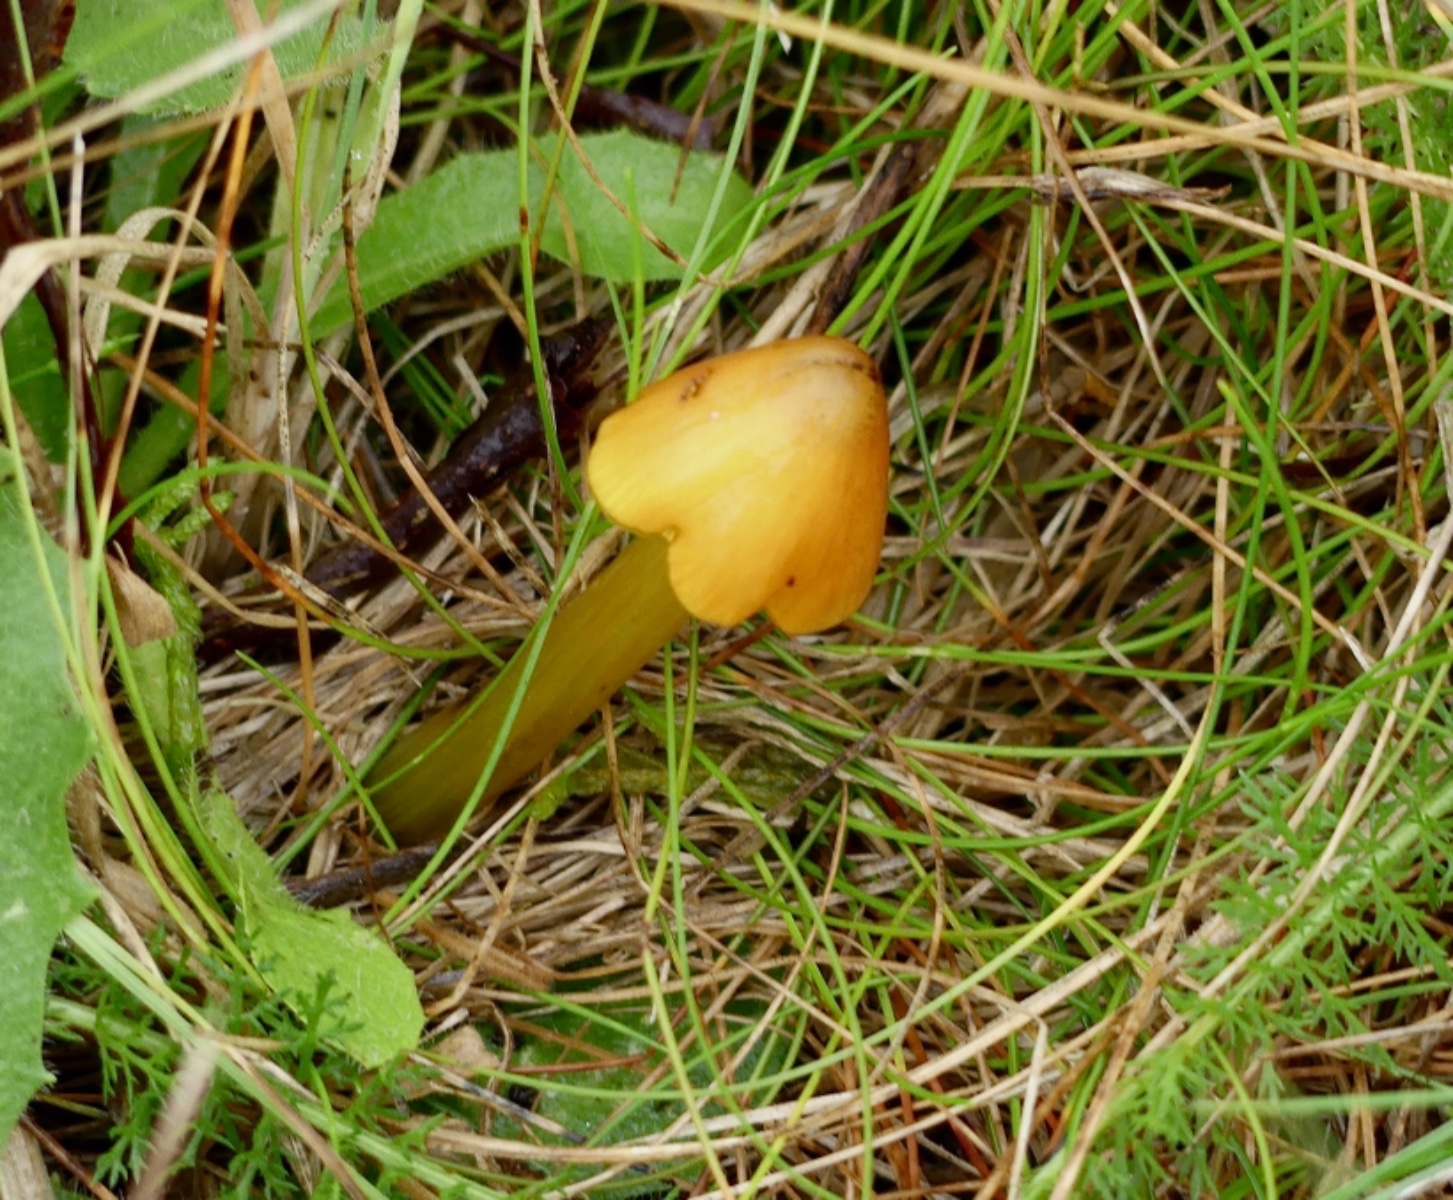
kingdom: Fungi
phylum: Basidiomycota
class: Agaricomycetes
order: Agaricales
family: Hygrophoraceae
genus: Hygrocybe
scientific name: Hygrocybe conica
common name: kegle-vokshat
